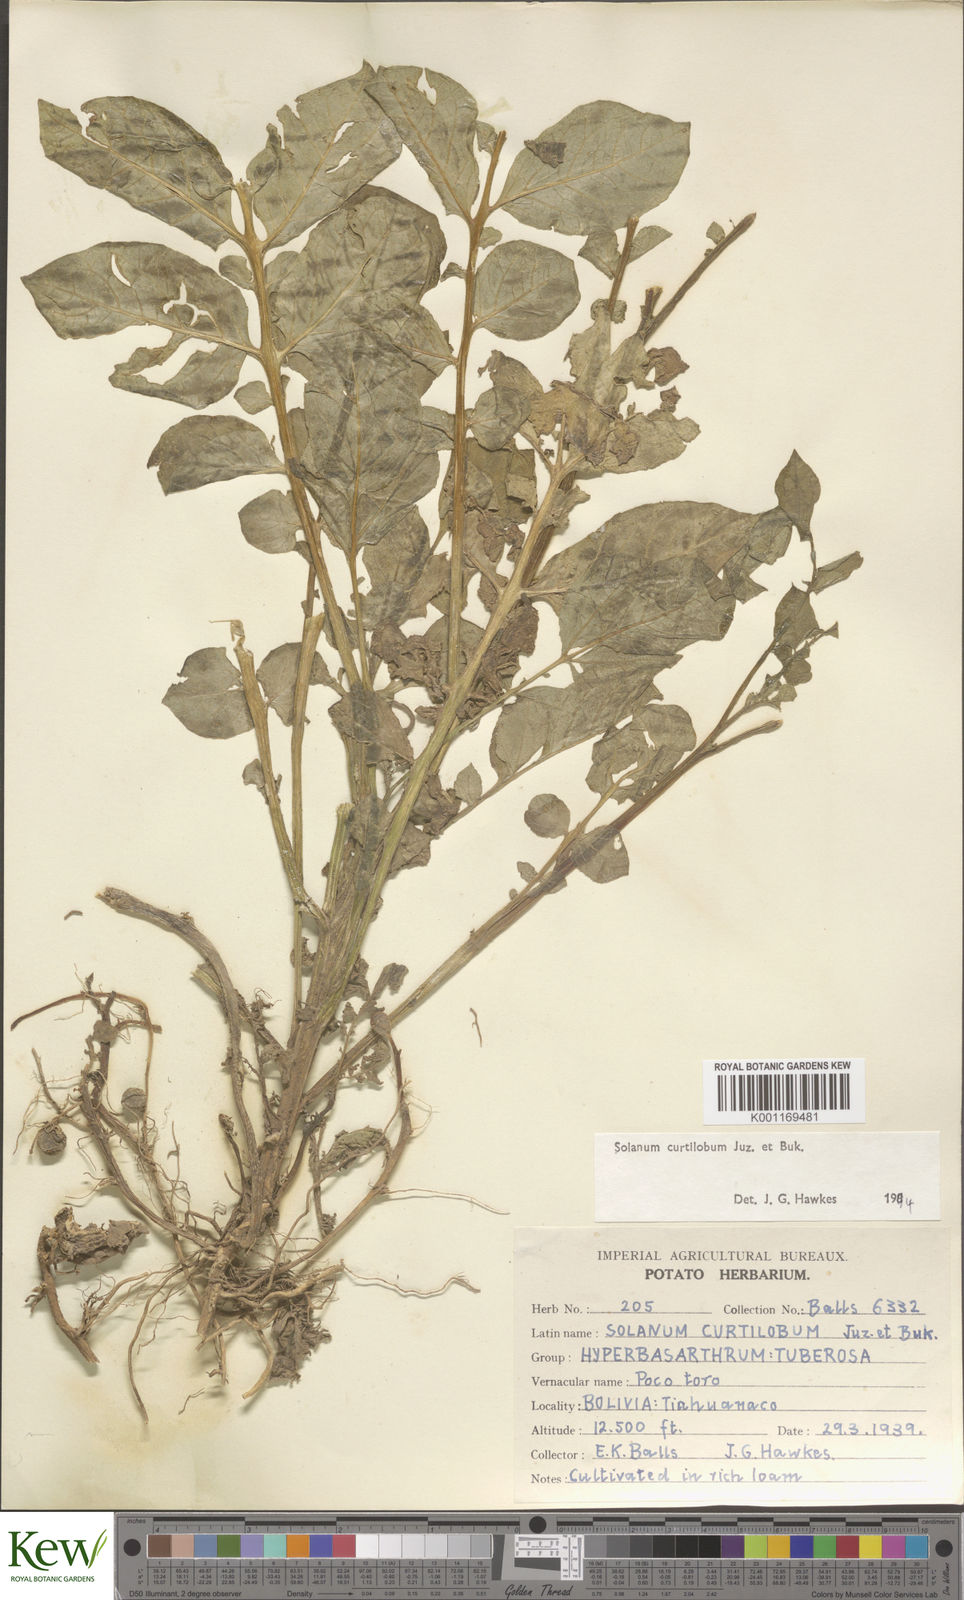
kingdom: Plantae
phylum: Tracheophyta
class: Magnoliopsida
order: Solanales
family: Solanaceae
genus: Solanum
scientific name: Solanum curtilobum
